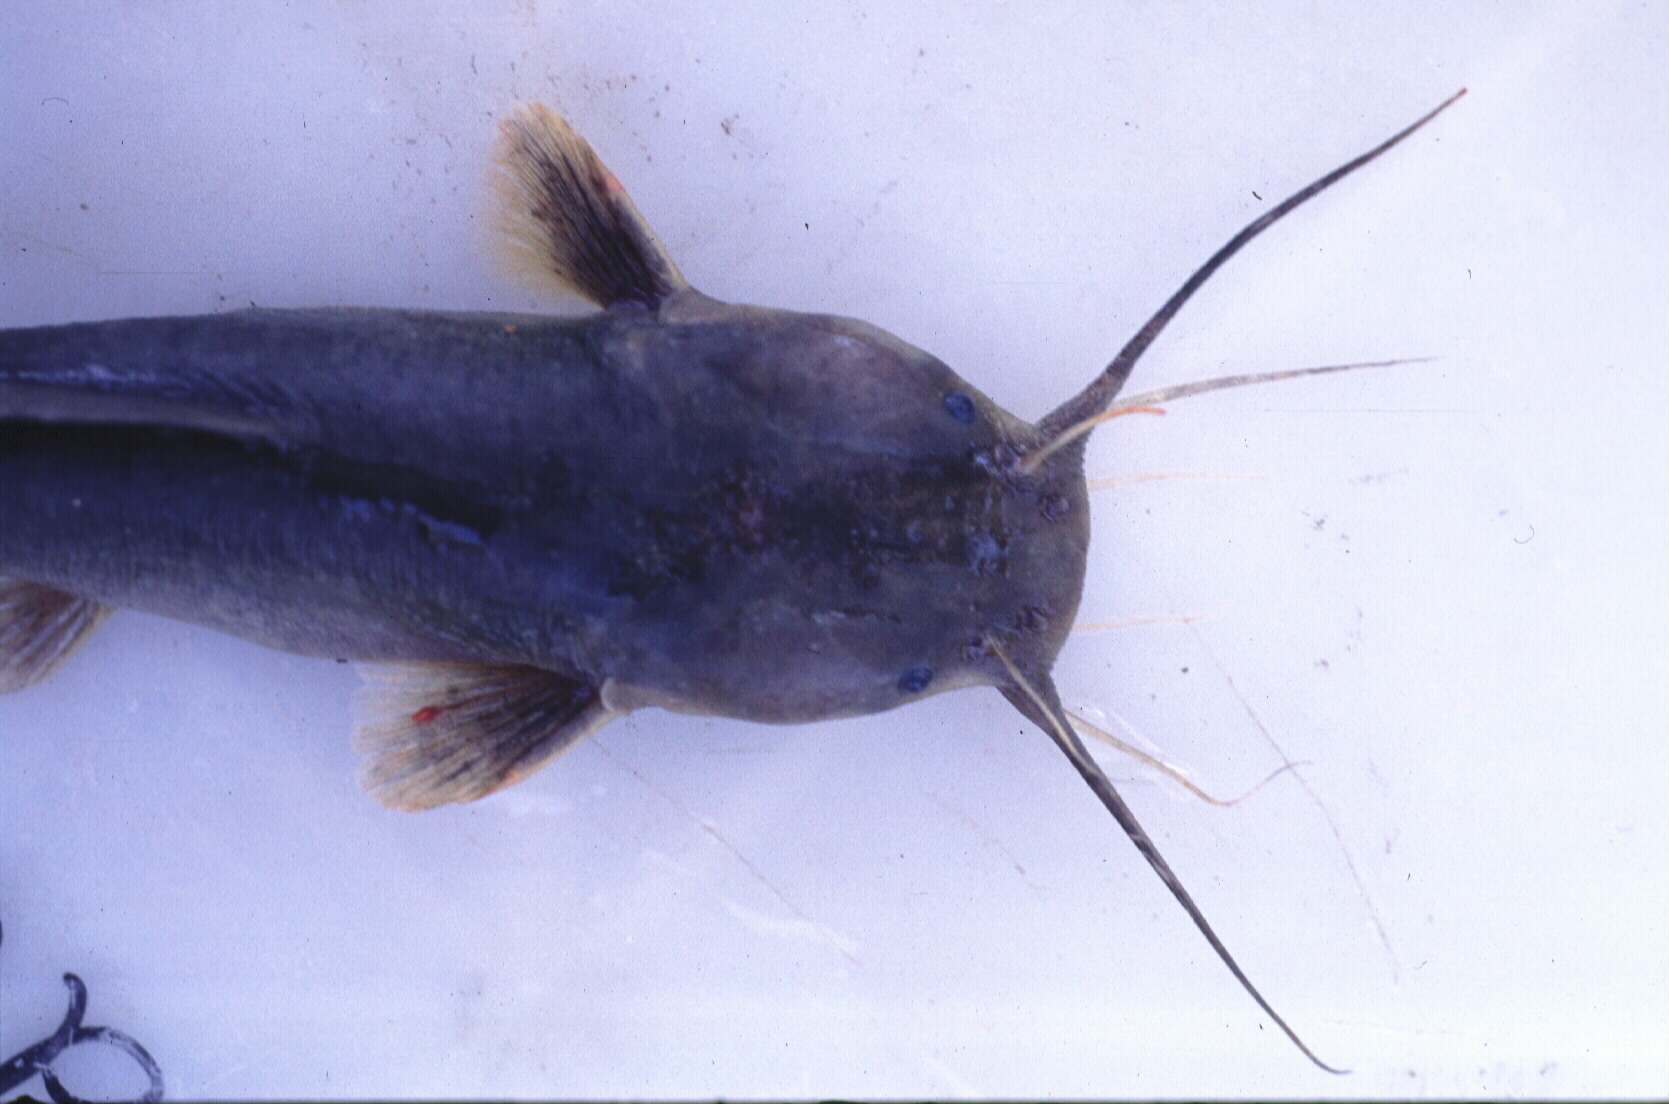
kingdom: Animalia
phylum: Chordata
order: Siluriformes
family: Clariidae
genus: Clariallabes
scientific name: Clariallabes
